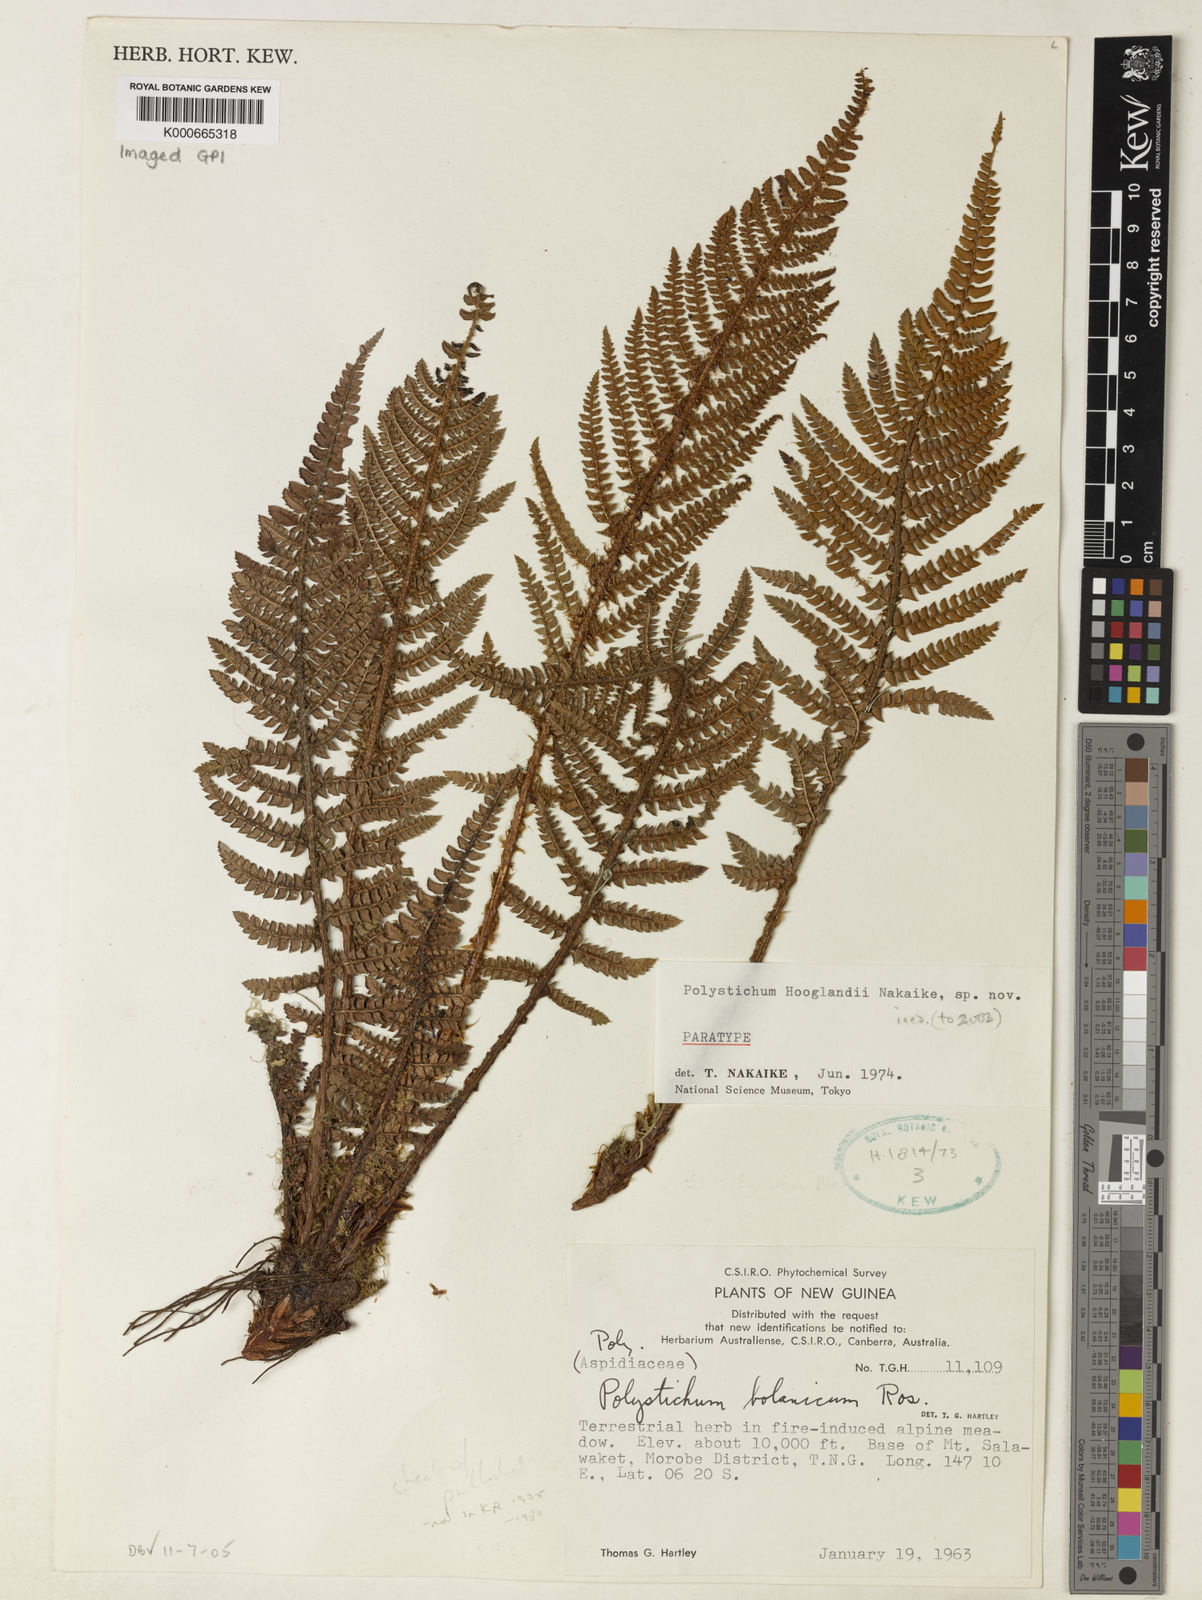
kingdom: Plantae
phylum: Tracheophyta
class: Polypodiopsida
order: Polypodiales
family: Dryopteridaceae
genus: Polystichum
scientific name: Polystichum
